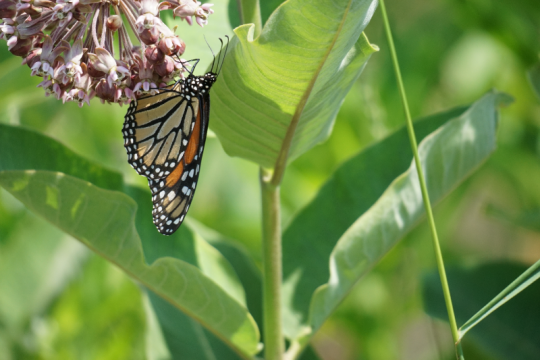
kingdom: Animalia
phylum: Arthropoda
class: Insecta
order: Lepidoptera
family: Nymphalidae
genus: Danaus
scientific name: Danaus plexippus
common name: Monarch
